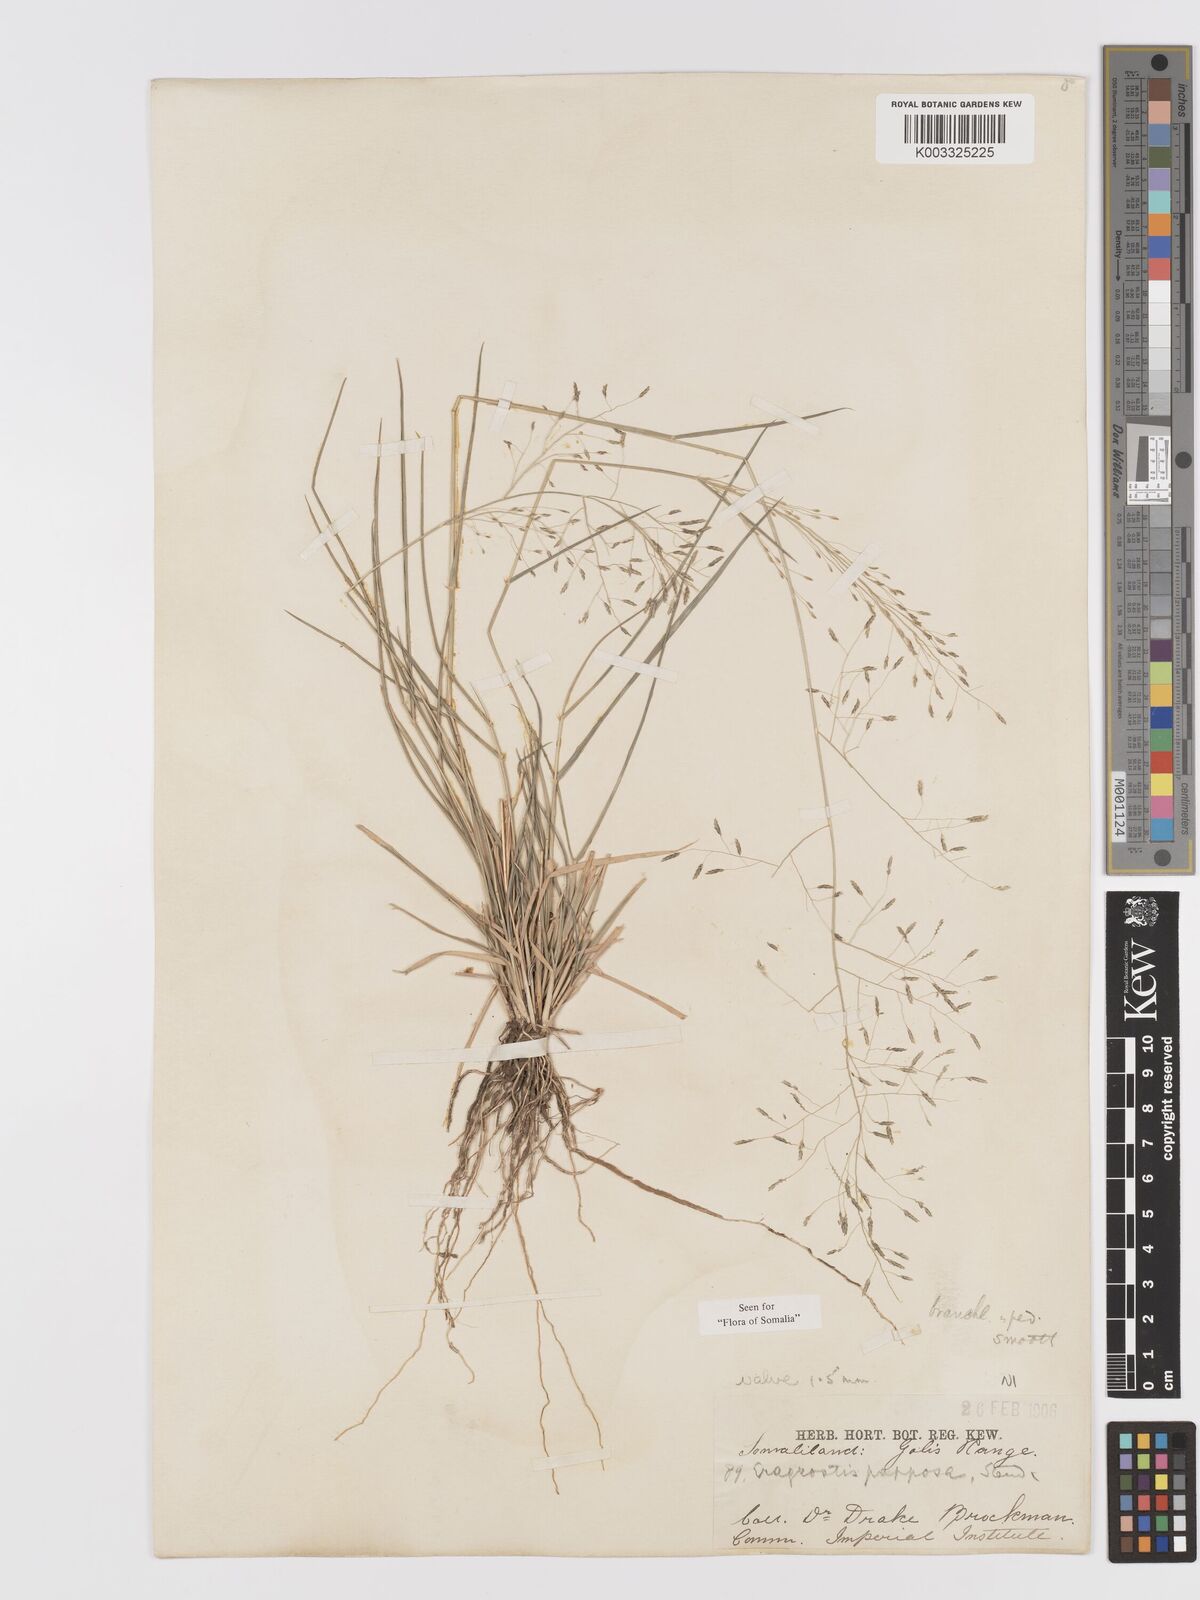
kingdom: Plantae
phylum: Tracheophyta
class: Liliopsida
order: Poales
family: Poaceae
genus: Eragrostis
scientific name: Eragrostis papposa
